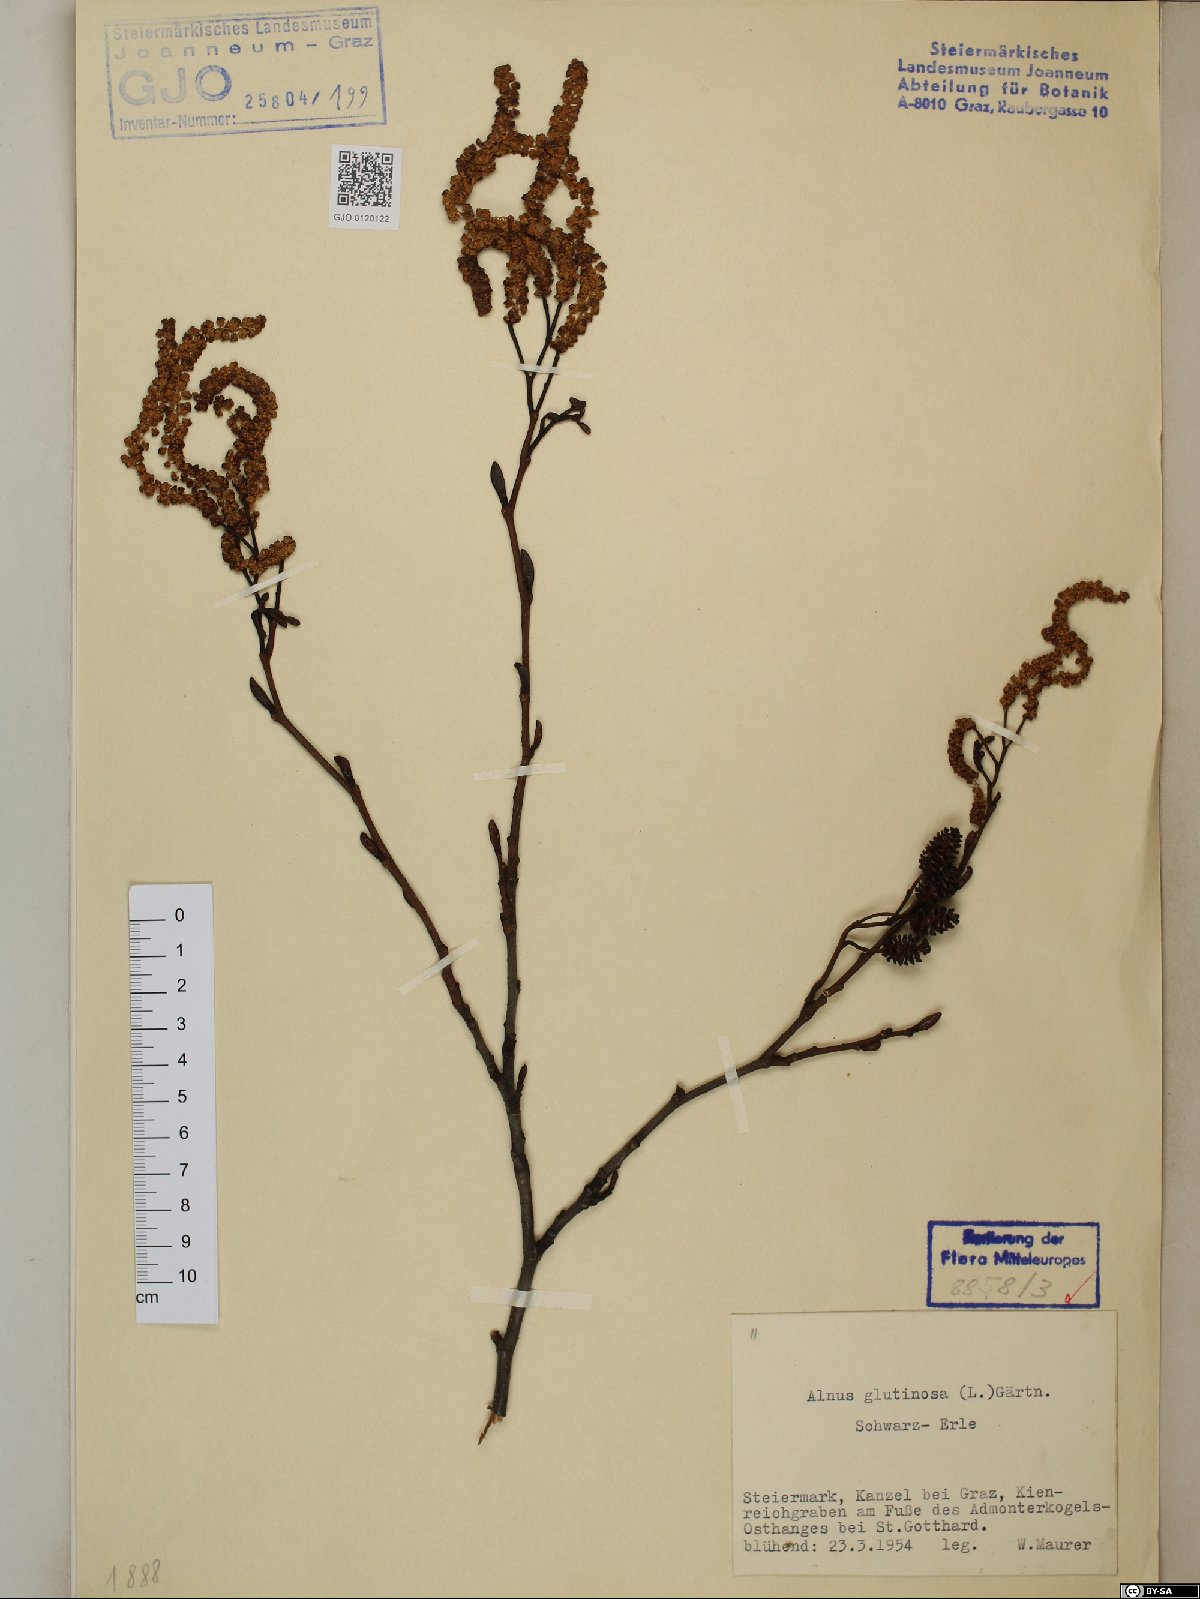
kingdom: Plantae
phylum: Tracheophyta
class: Magnoliopsida
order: Fagales
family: Betulaceae
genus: Alnus
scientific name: Alnus glutinosa
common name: Black alder
